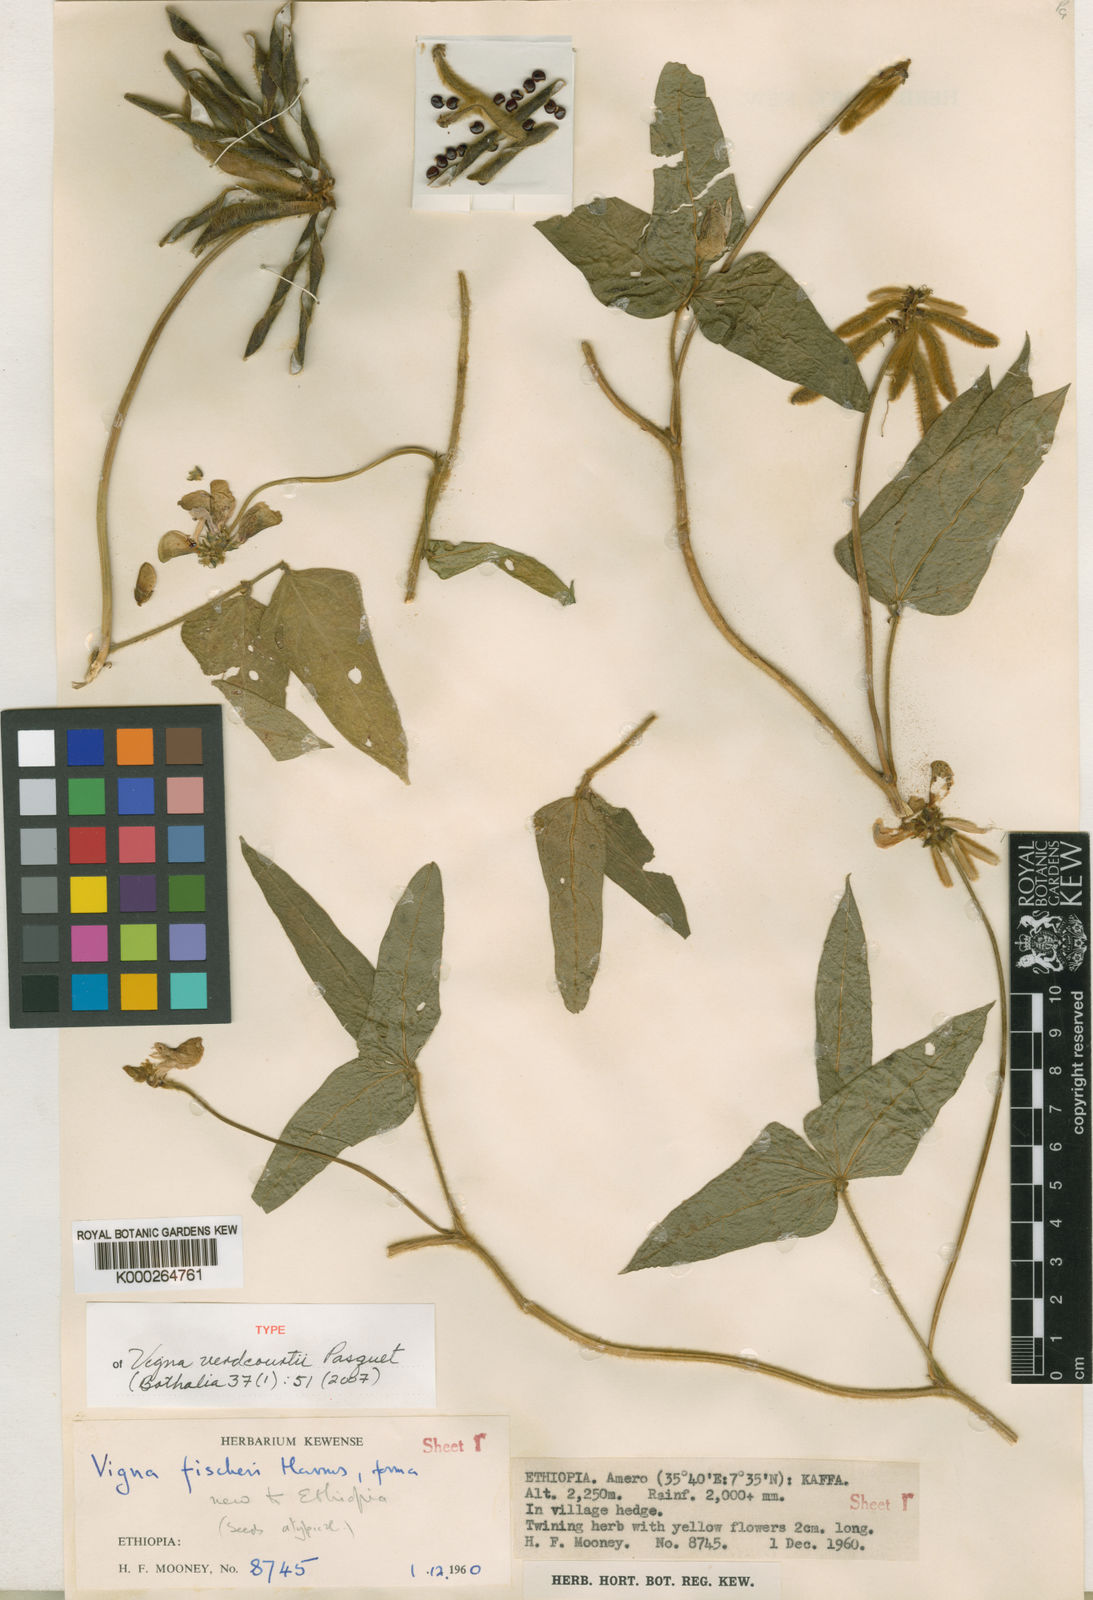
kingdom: Plantae
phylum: Tracheophyta
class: Magnoliopsida
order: Fabales
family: Fabaceae
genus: Vigna
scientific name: Vigna verdcourtii
